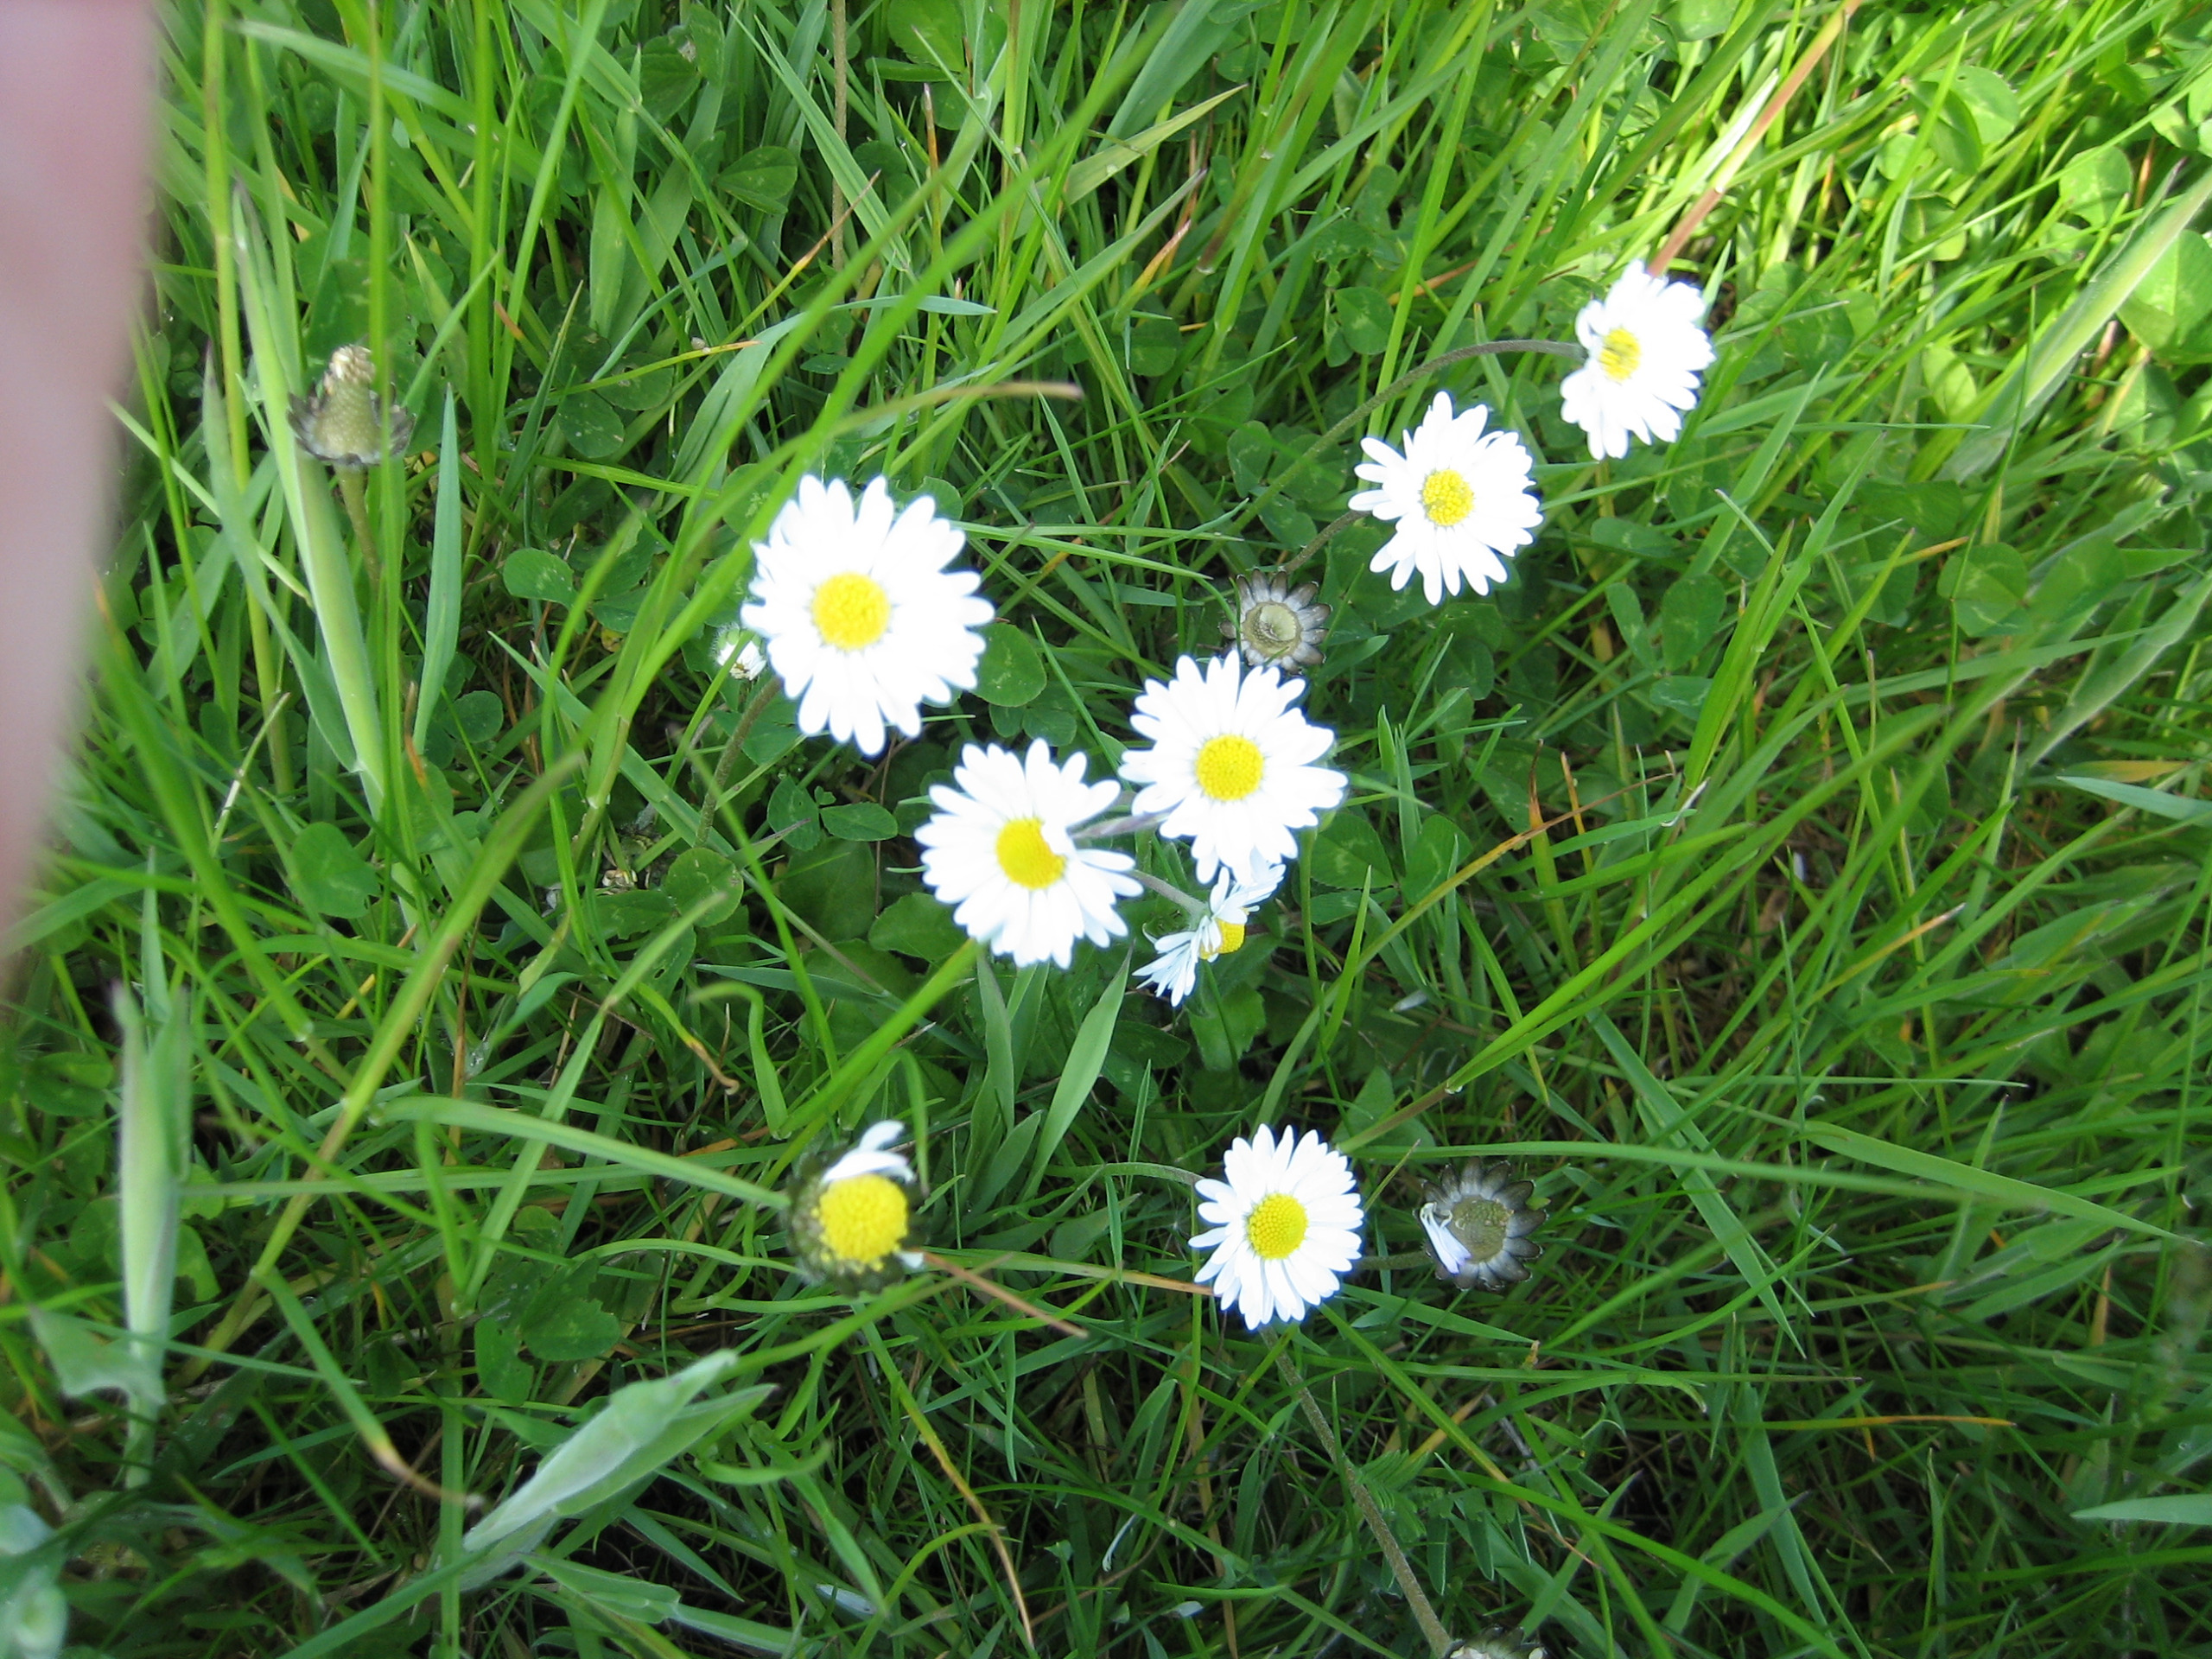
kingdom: Plantae
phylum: Tracheophyta
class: Magnoliopsida
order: Asterales
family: Asteraceae
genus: Bellis
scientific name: Bellis perennis
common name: Tusindfryd
